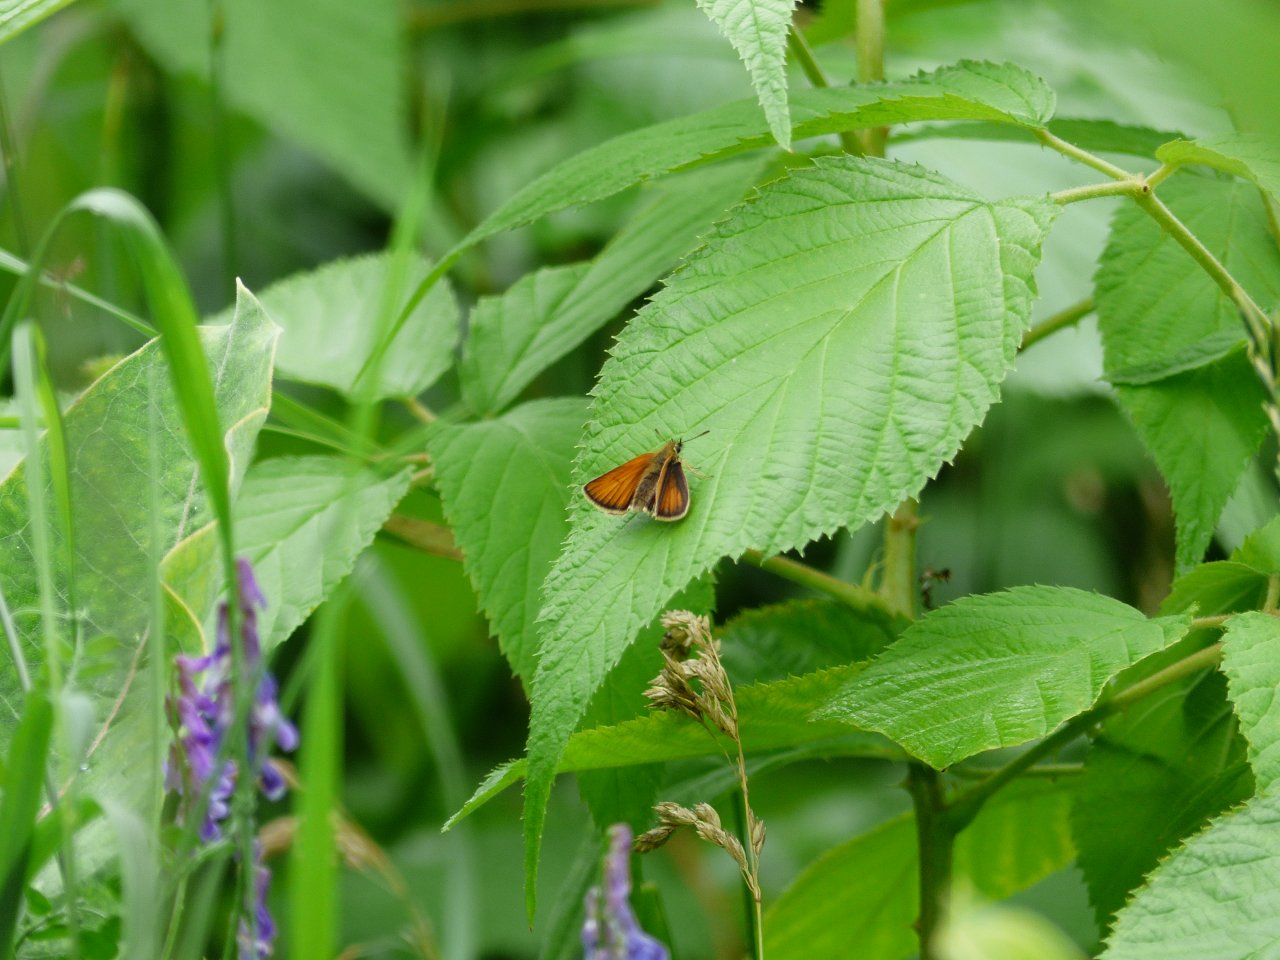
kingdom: Animalia
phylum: Arthropoda
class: Insecta
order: Lepidoptera
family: Hesperiidae
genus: Thymelicus
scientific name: Thymelicus lineola
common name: European Skipper
